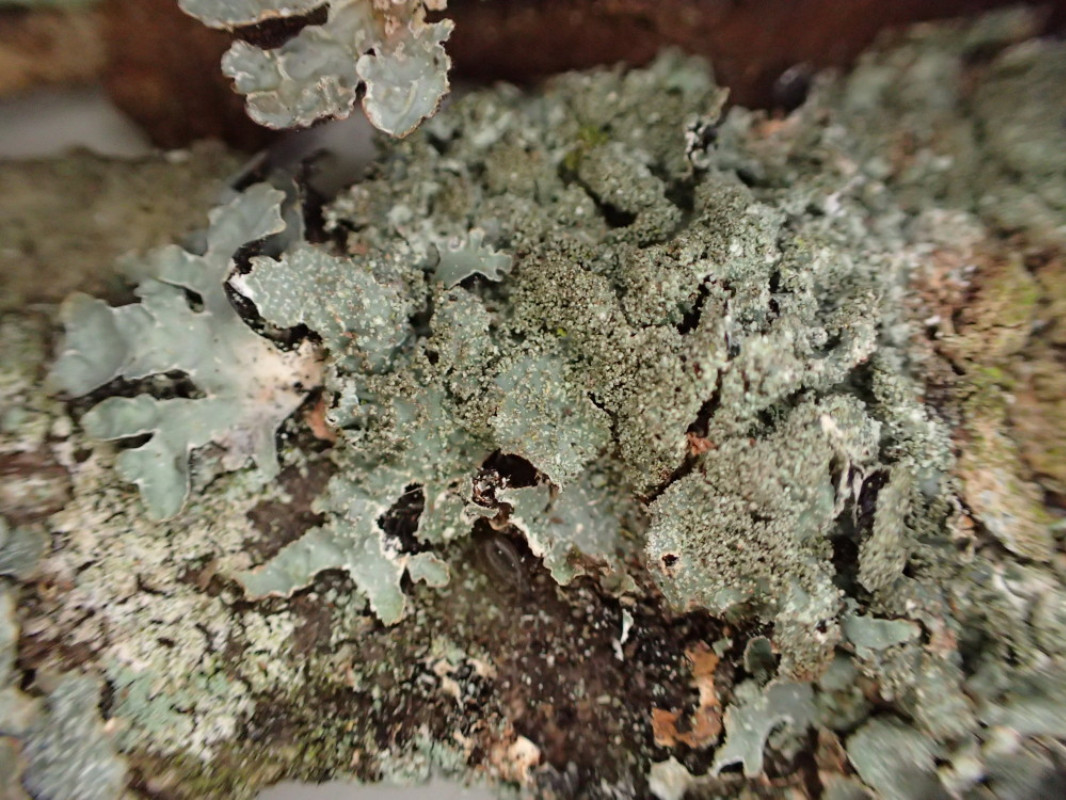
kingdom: Fungi
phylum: Ascomycota
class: Lecanoromycetes
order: Lecanorales
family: Parmeliaceae
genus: Parmelia
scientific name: Parmelia ernstiae
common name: rimstift-skållav
